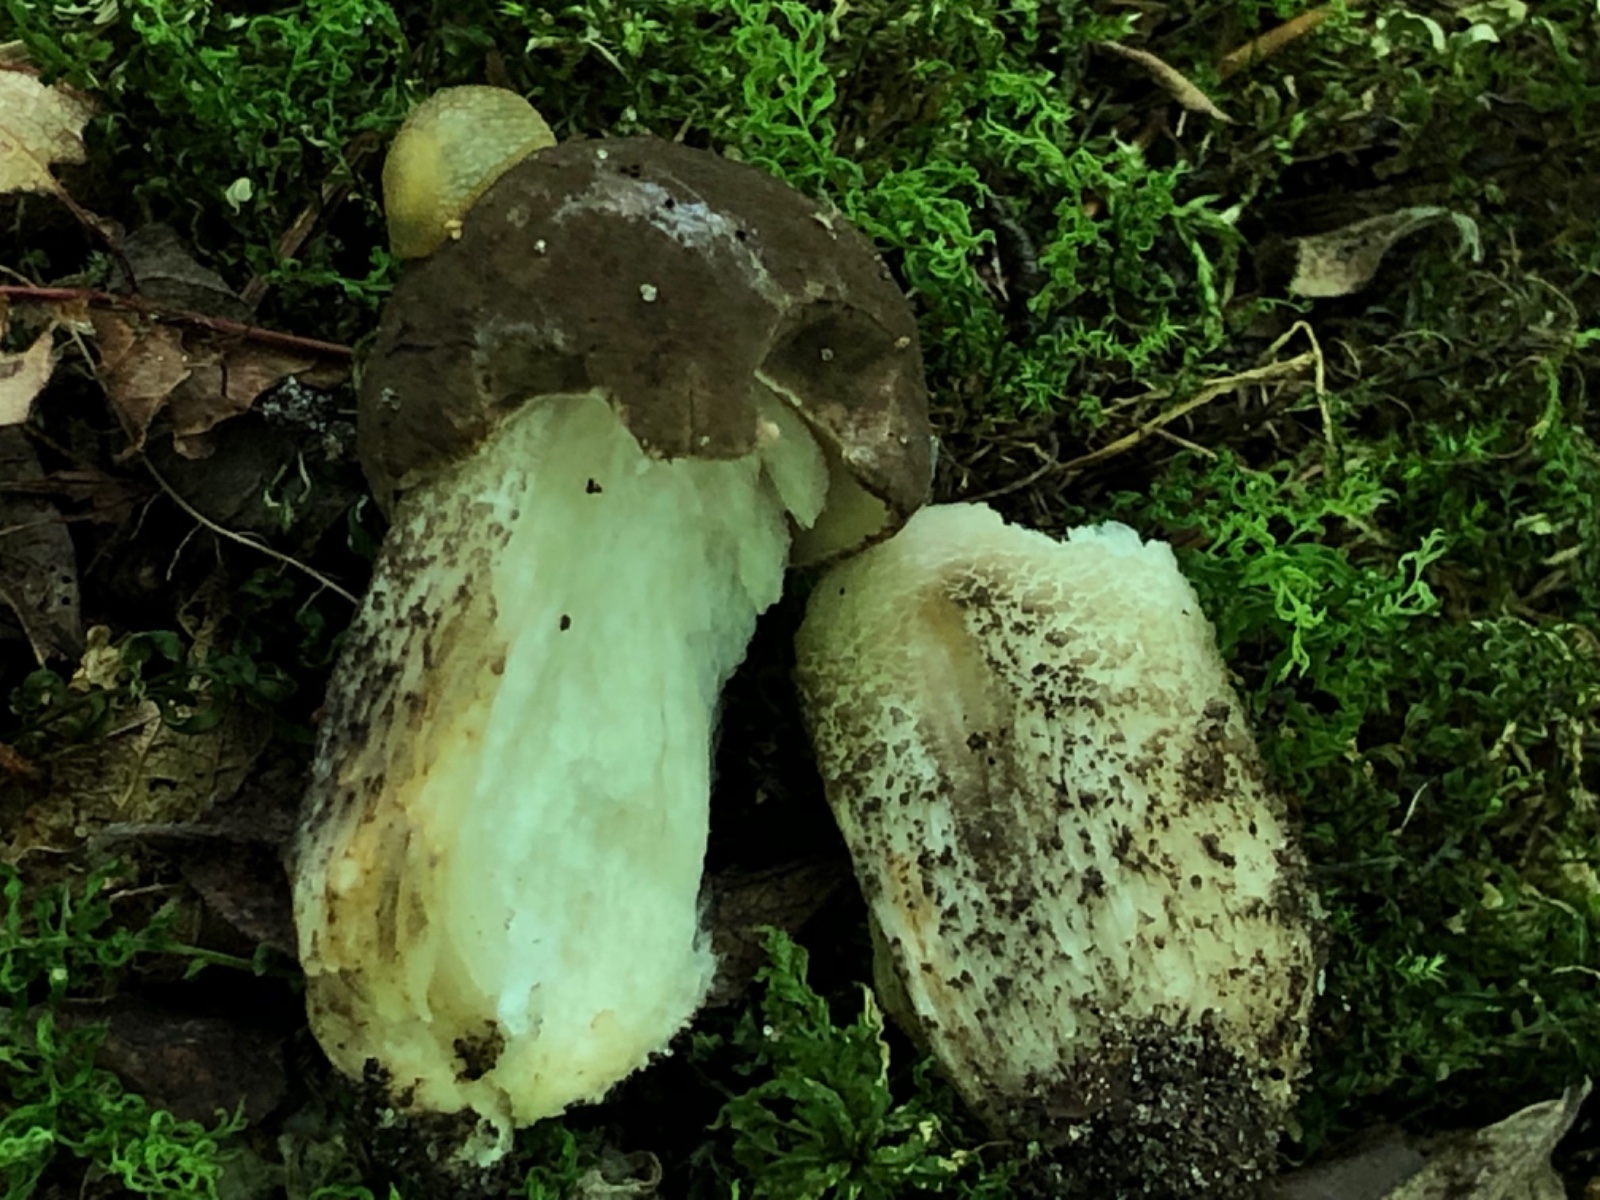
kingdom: Fungi
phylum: Basidiomycota
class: Agaricomycetes
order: Boletales
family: Boletaceae
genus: Leccinum
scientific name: Leccinum scabrum
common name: brun skælrørhat
